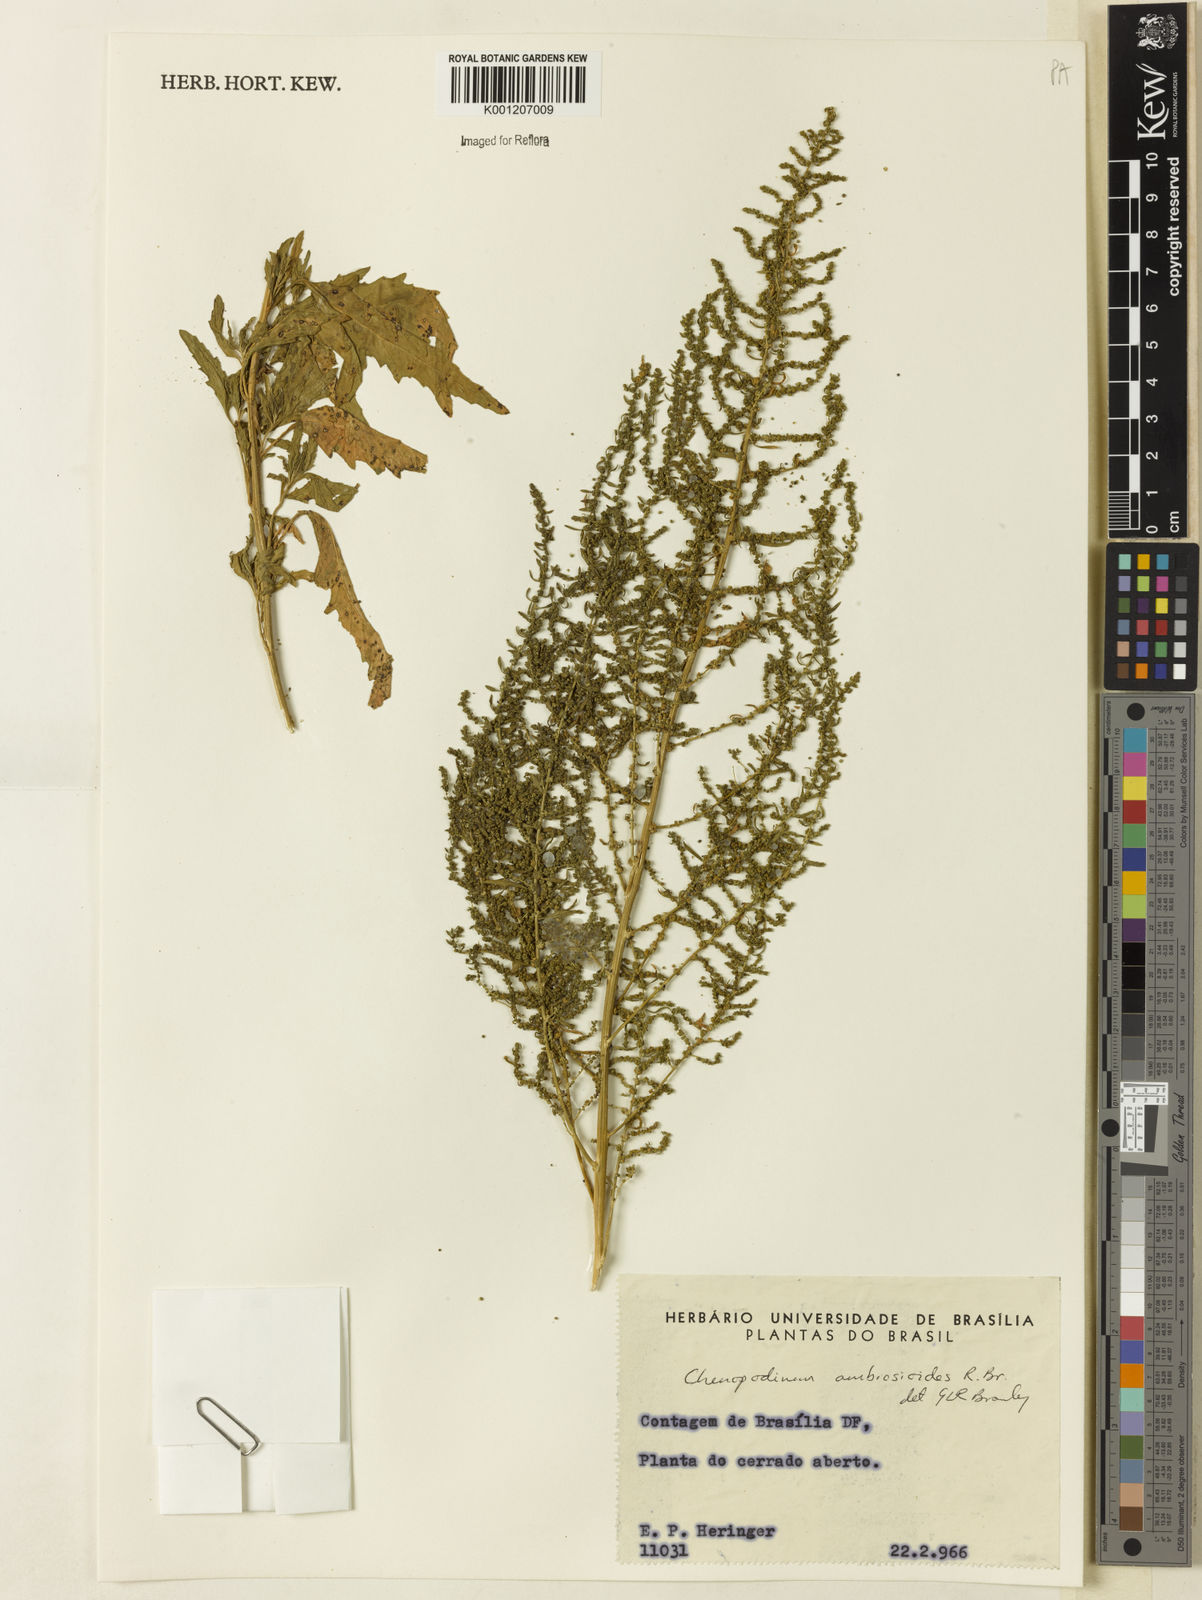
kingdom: Plantae
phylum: Tracheophyta
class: Magnoliopsida
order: Caryophyllales
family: Amaranthaceae
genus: Dysphania
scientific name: Dysphania ambrosioides
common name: Wormseed
